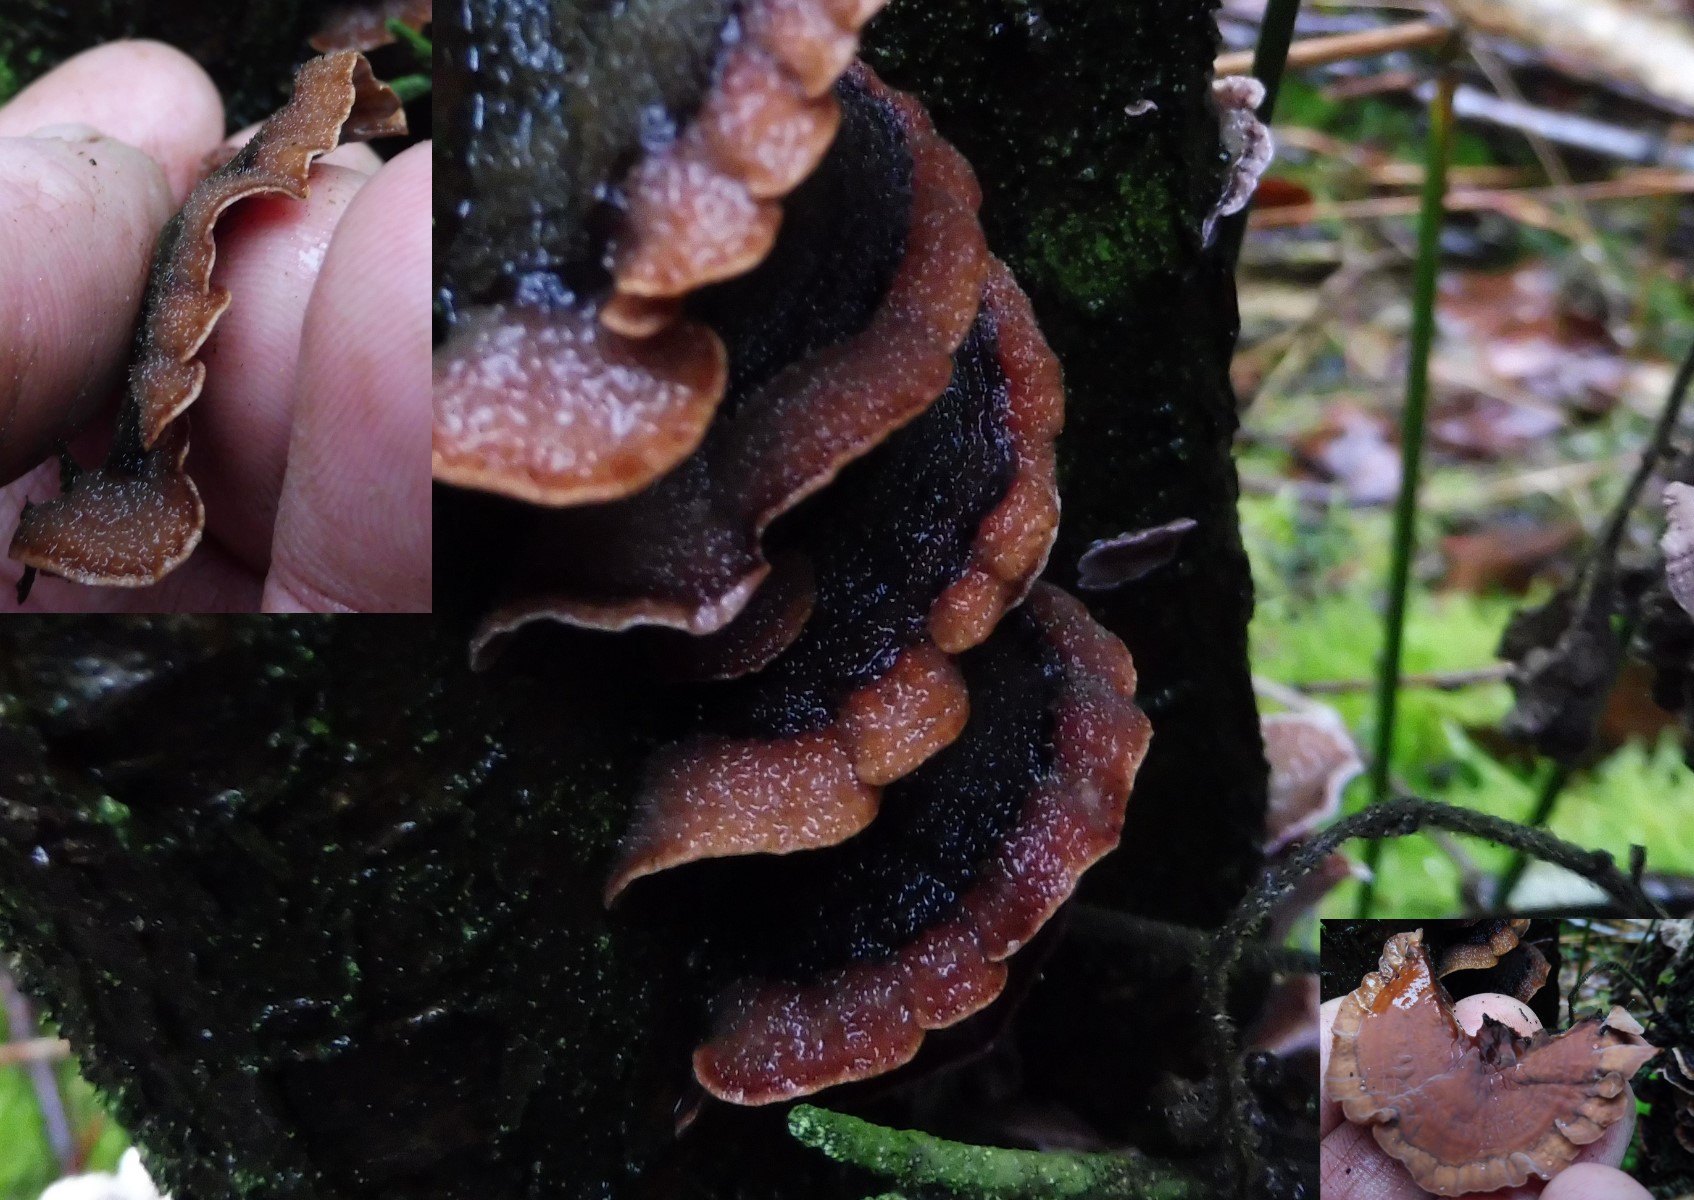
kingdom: Fungi
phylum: Basidiomycota
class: Agaricomycetes
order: Russulales
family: Stereaceae
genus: Stereum
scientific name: Stereum hirsutum
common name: håret lædersvamp
